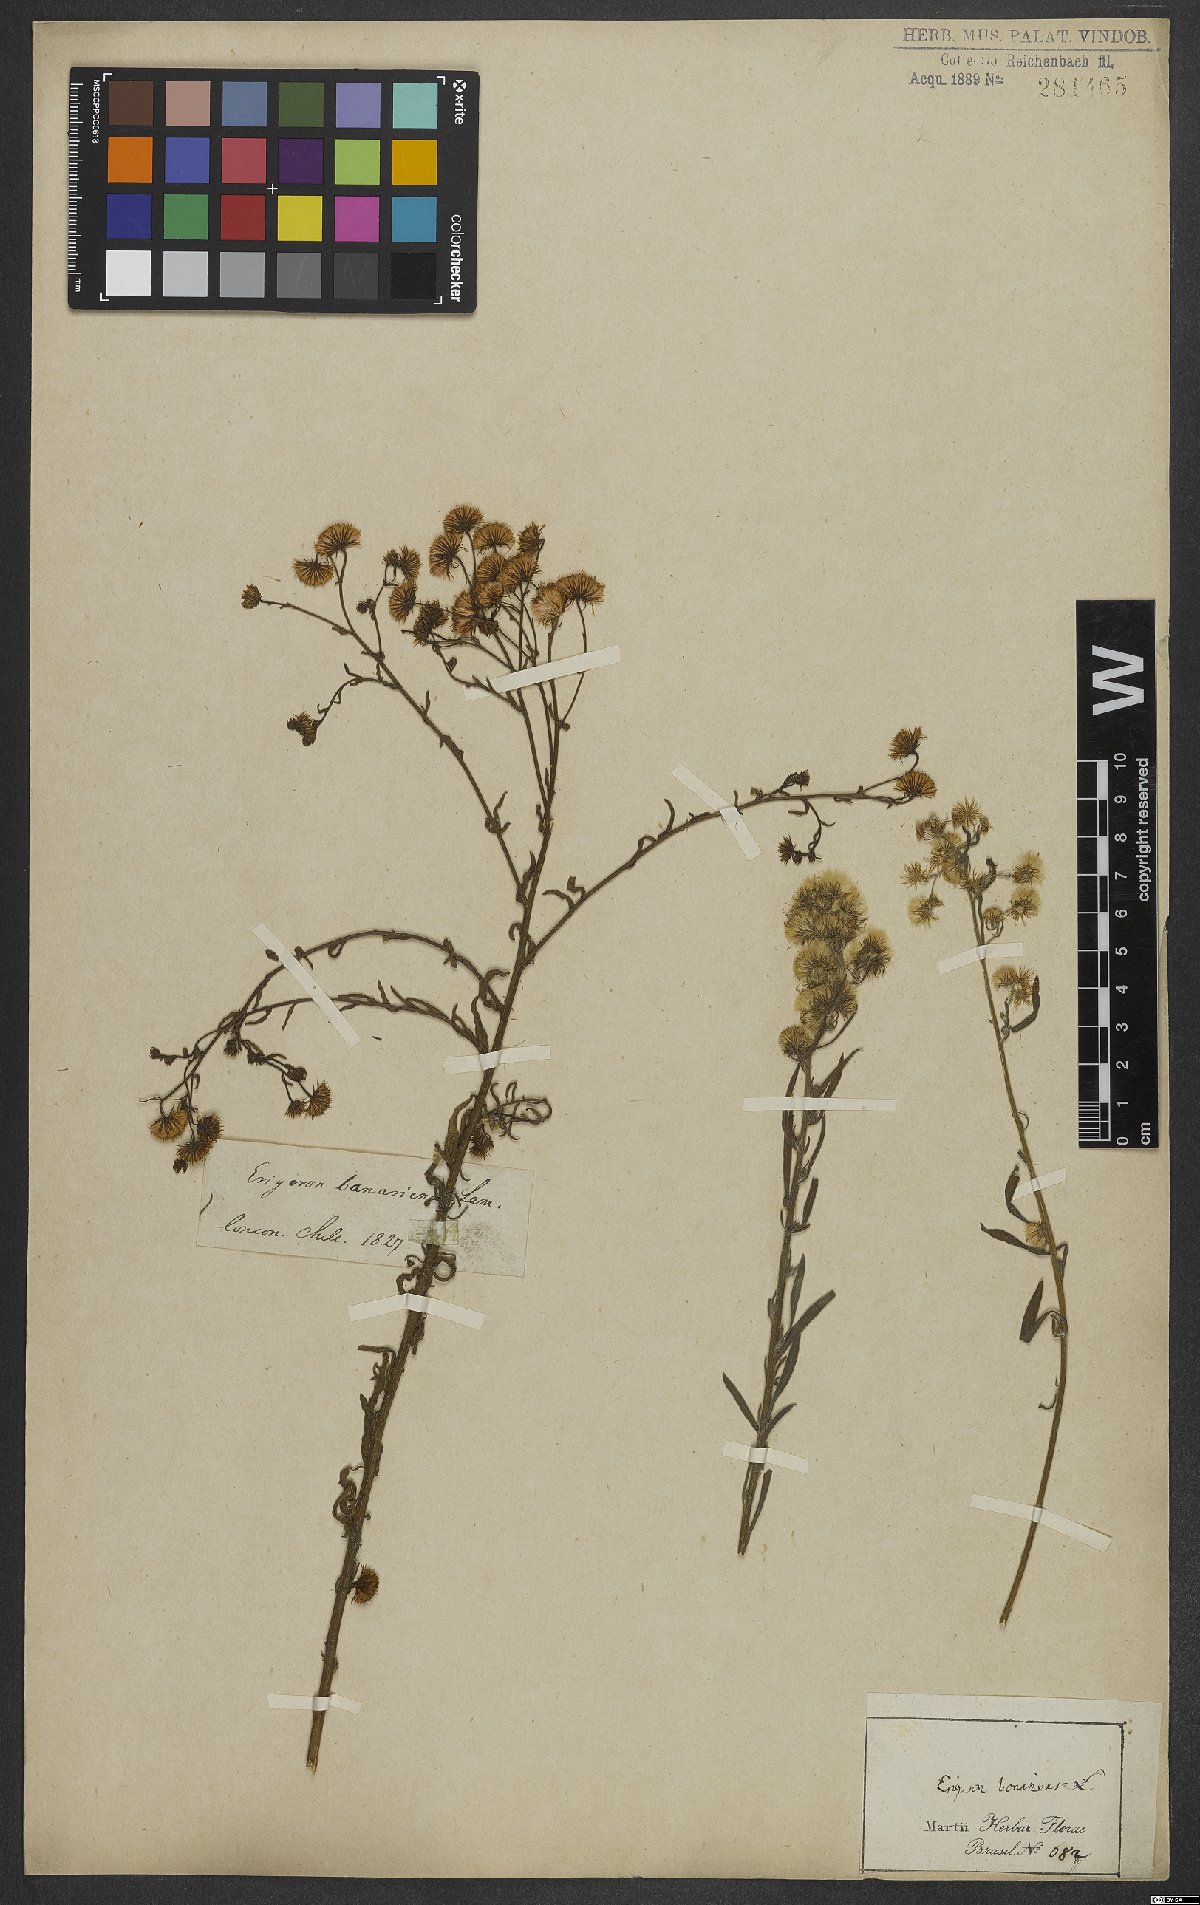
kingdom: Plantae
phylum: Tracheophyta
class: Magnoliopsida
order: Asterales
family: Asteraceae
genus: Erigeron
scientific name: Erigeron bonariensis
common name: Argentine fleabane
